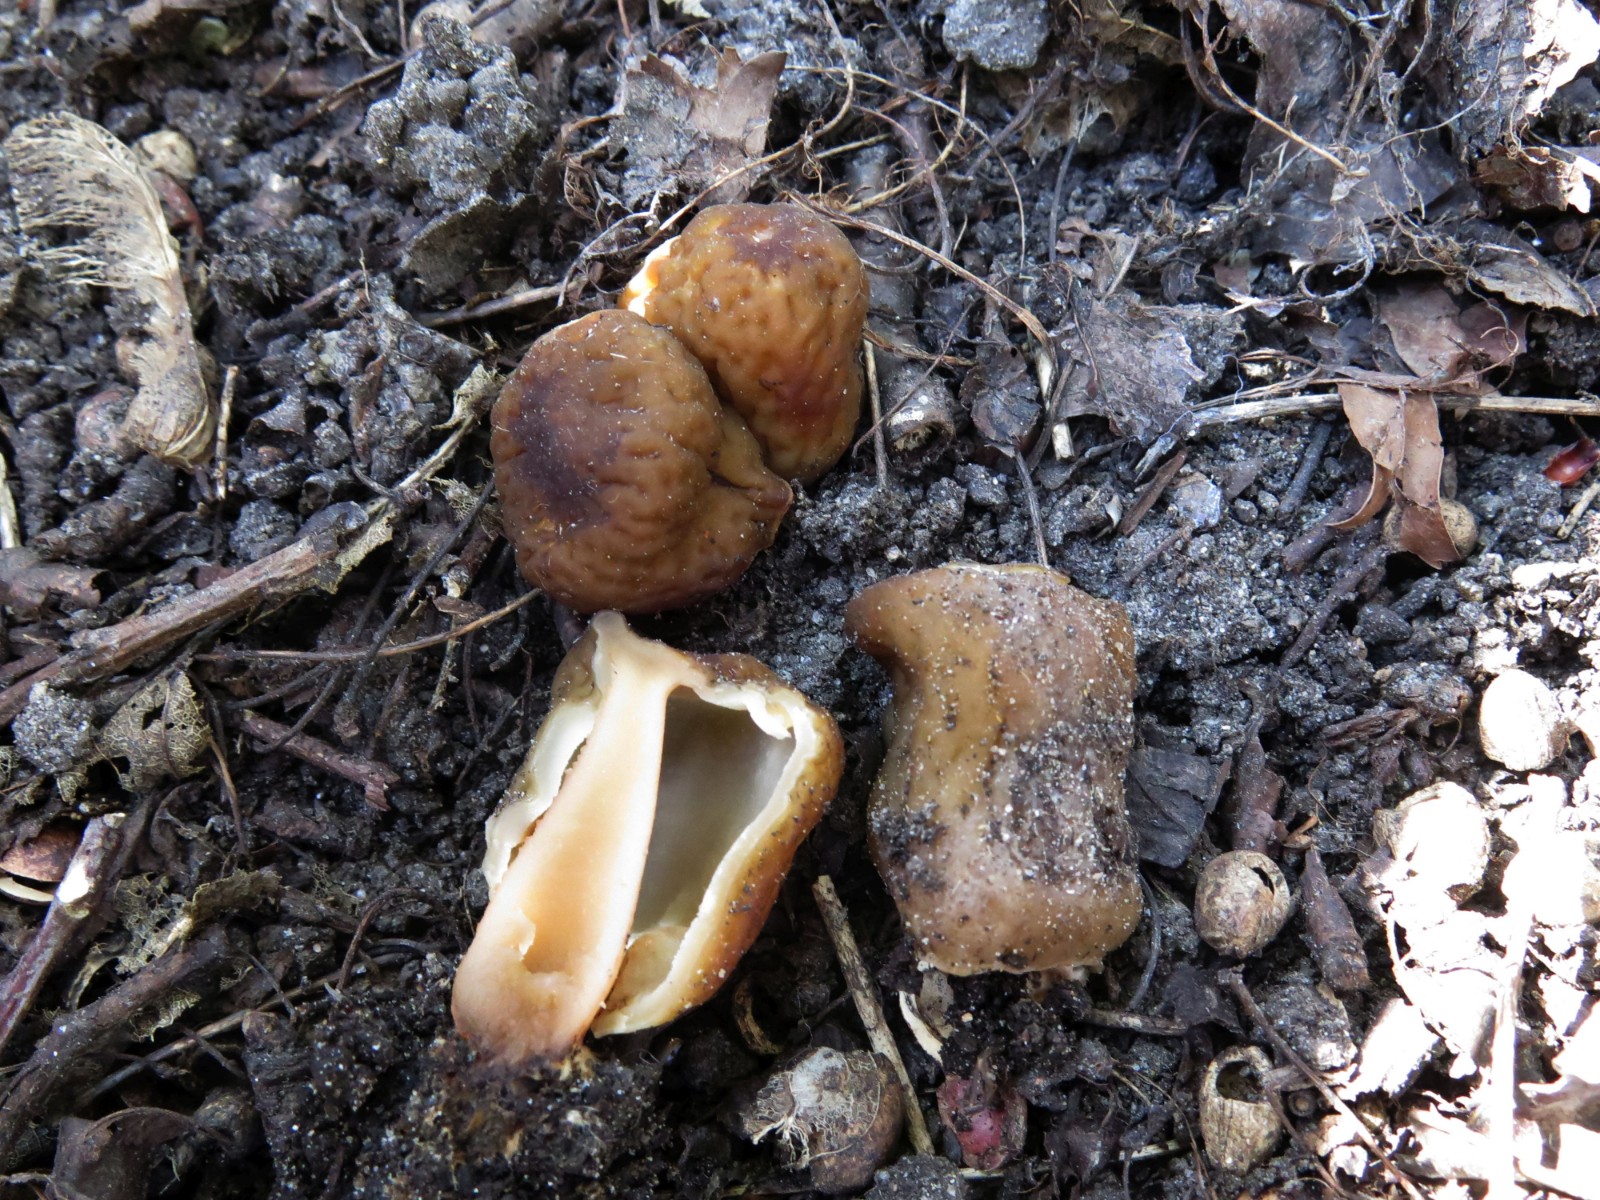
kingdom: Fungi
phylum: Ascomycota
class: Pezizomycetes
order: Pezizales
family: Morchellaceae
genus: Verpa
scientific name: Verpa conica
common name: glat klokkemorkel
